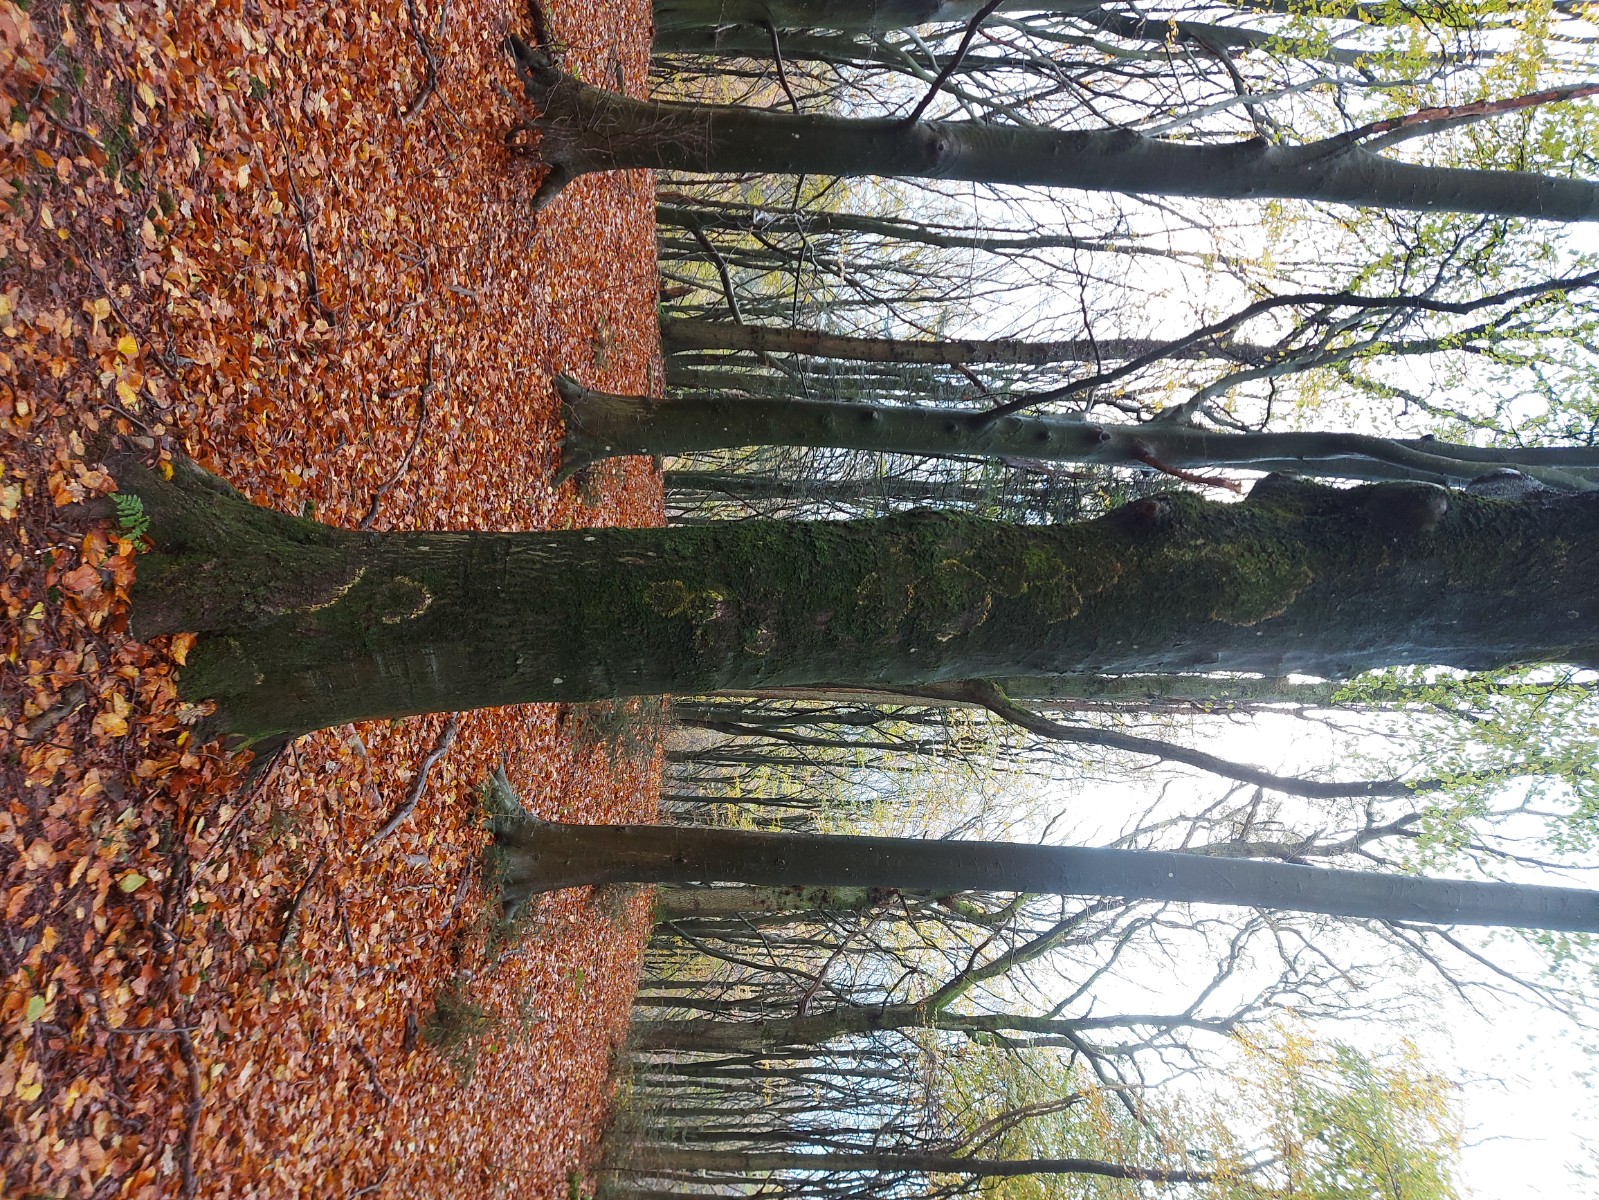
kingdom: Fungi
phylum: Basidiomycota
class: Agaricomycetes
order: Agaricales
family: Chromocyphellaceae
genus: Chromocyphella
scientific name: Chromocyphella muscicola
